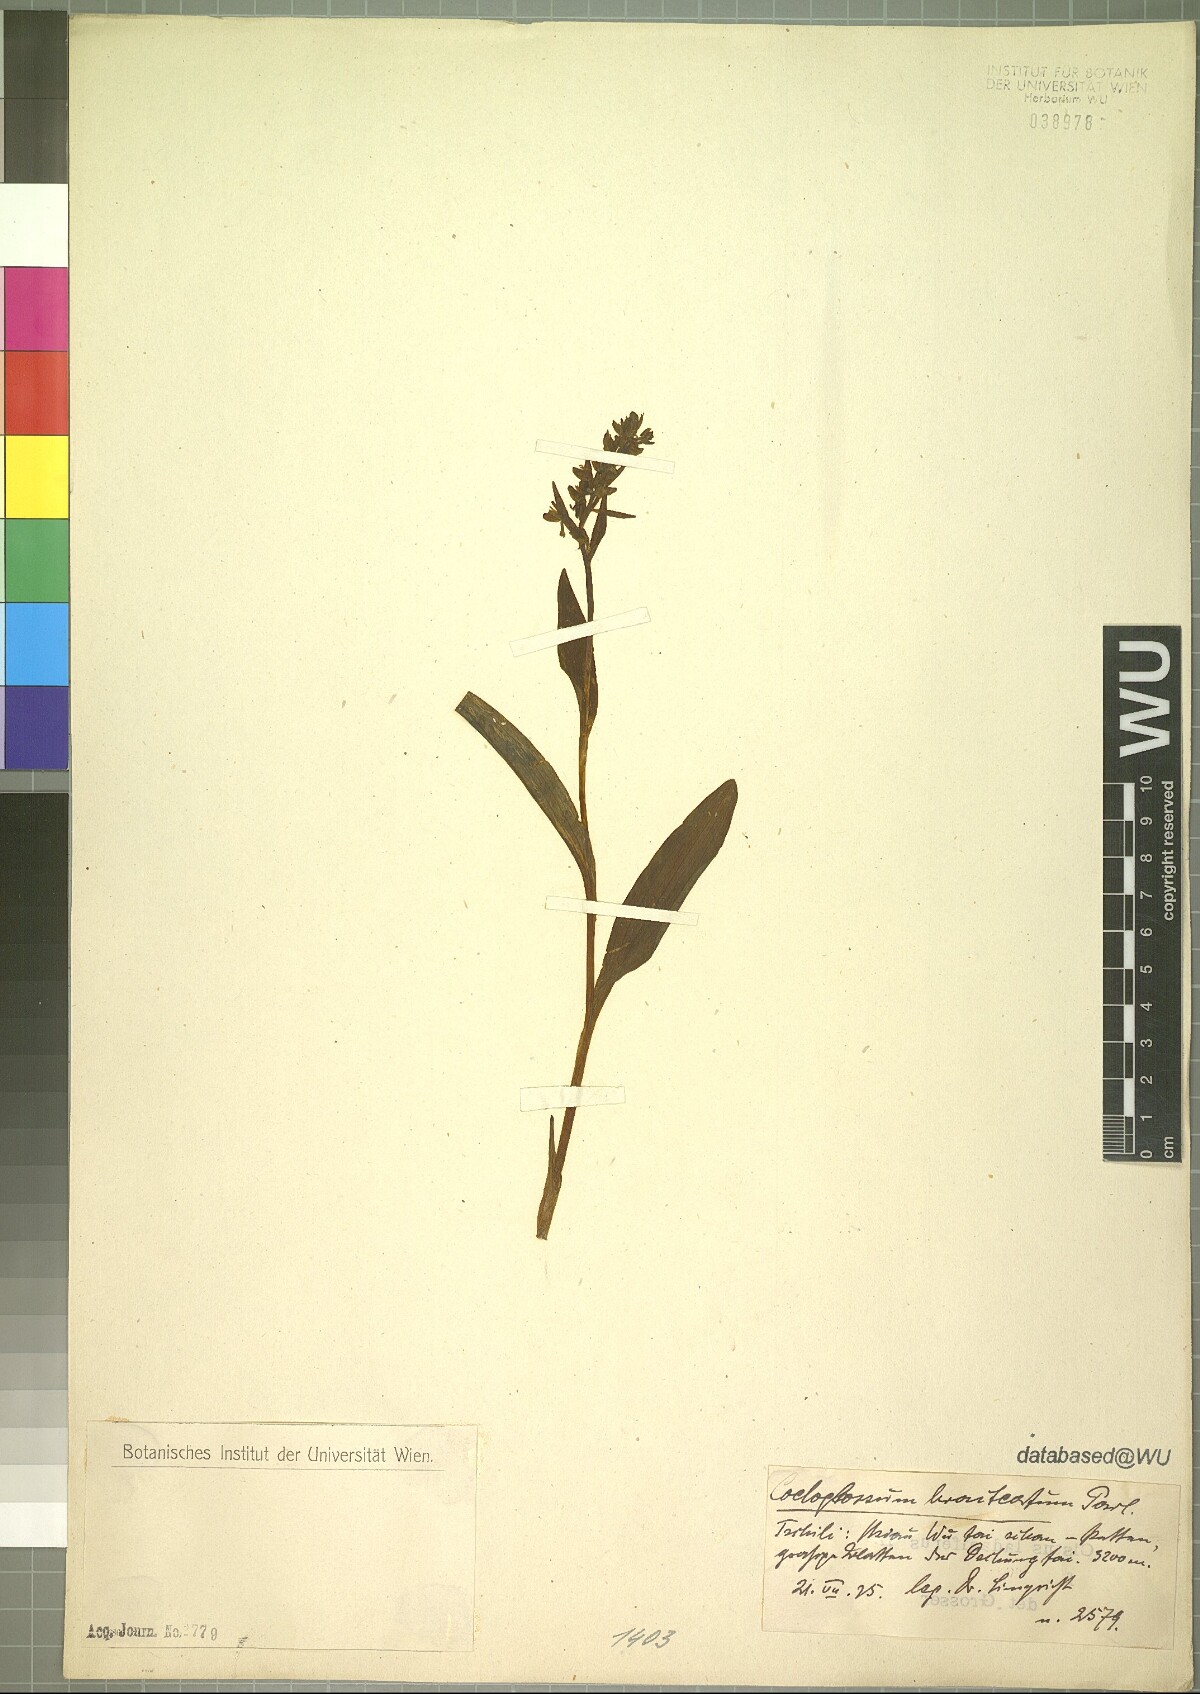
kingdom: Plantae
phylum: Tracheophyta
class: Liliopsida
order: Asparagales
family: Orchidaceae
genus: Dactylorhiza
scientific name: Dactylorhiza viridis
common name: Longbract frog orchid
